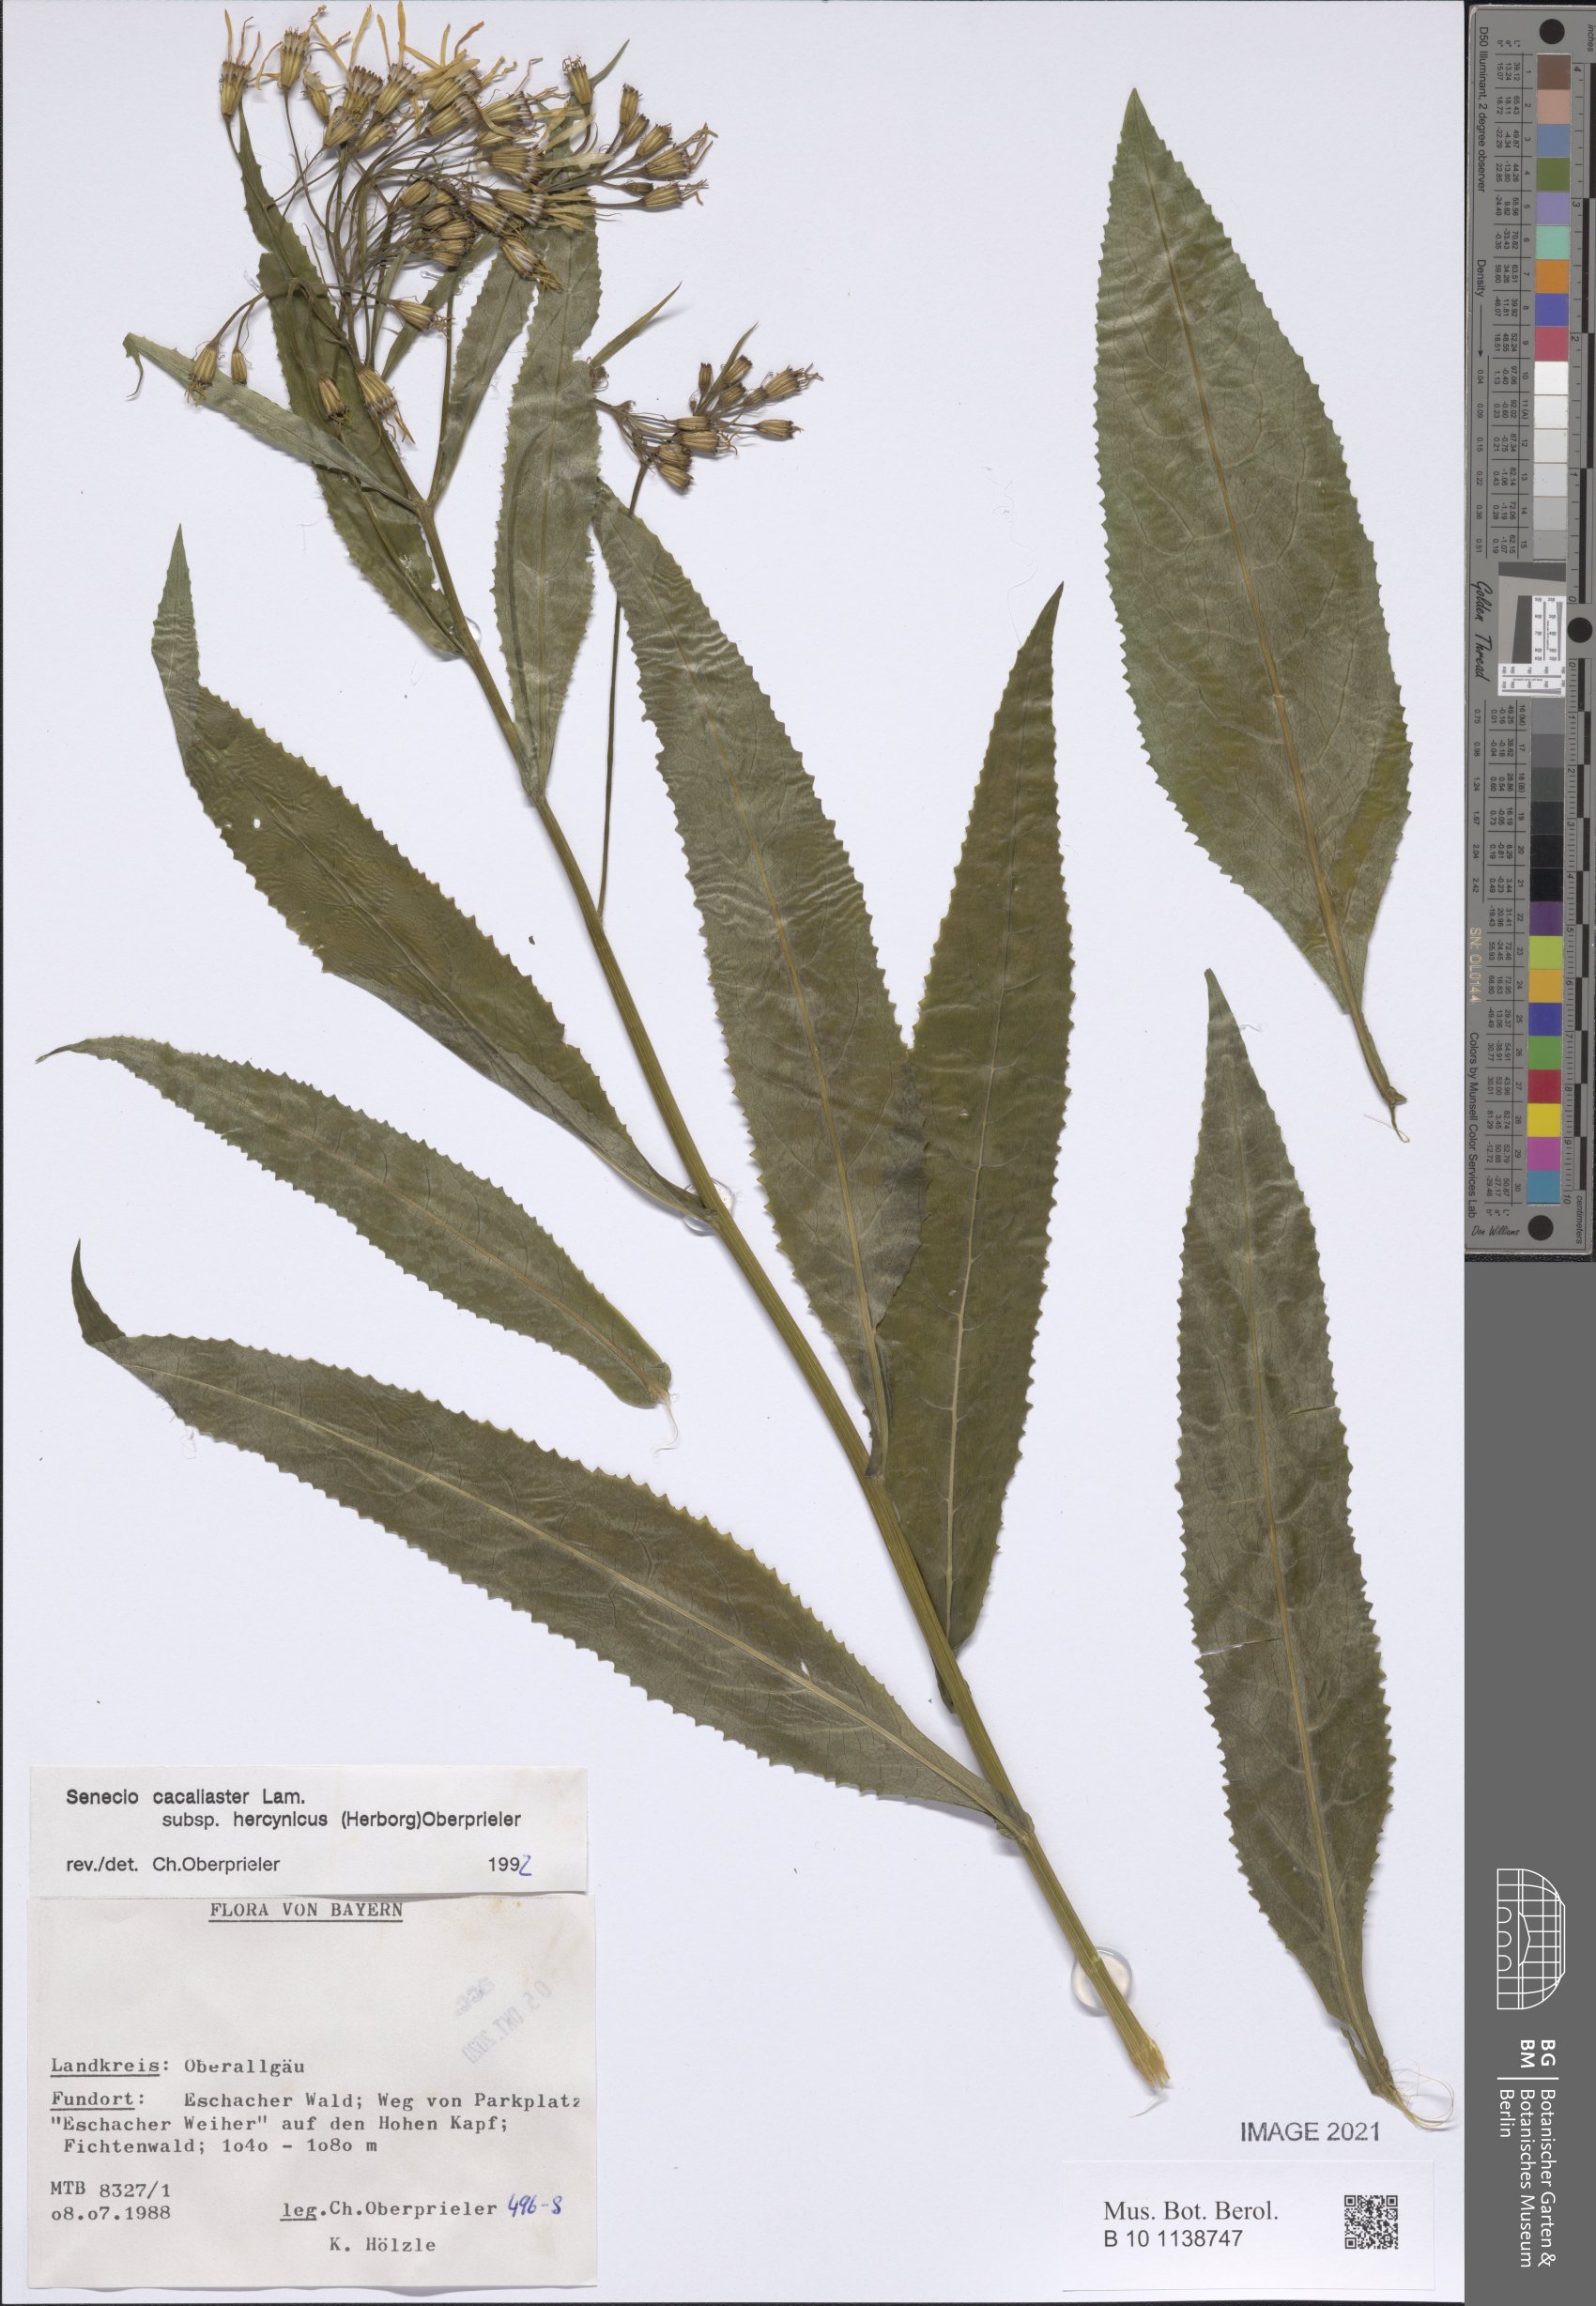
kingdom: Plantae
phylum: Tracheophyta
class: Magnoliopsida
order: Asterales
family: Asteraceae
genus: Senecio
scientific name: Senecio hercynicus
